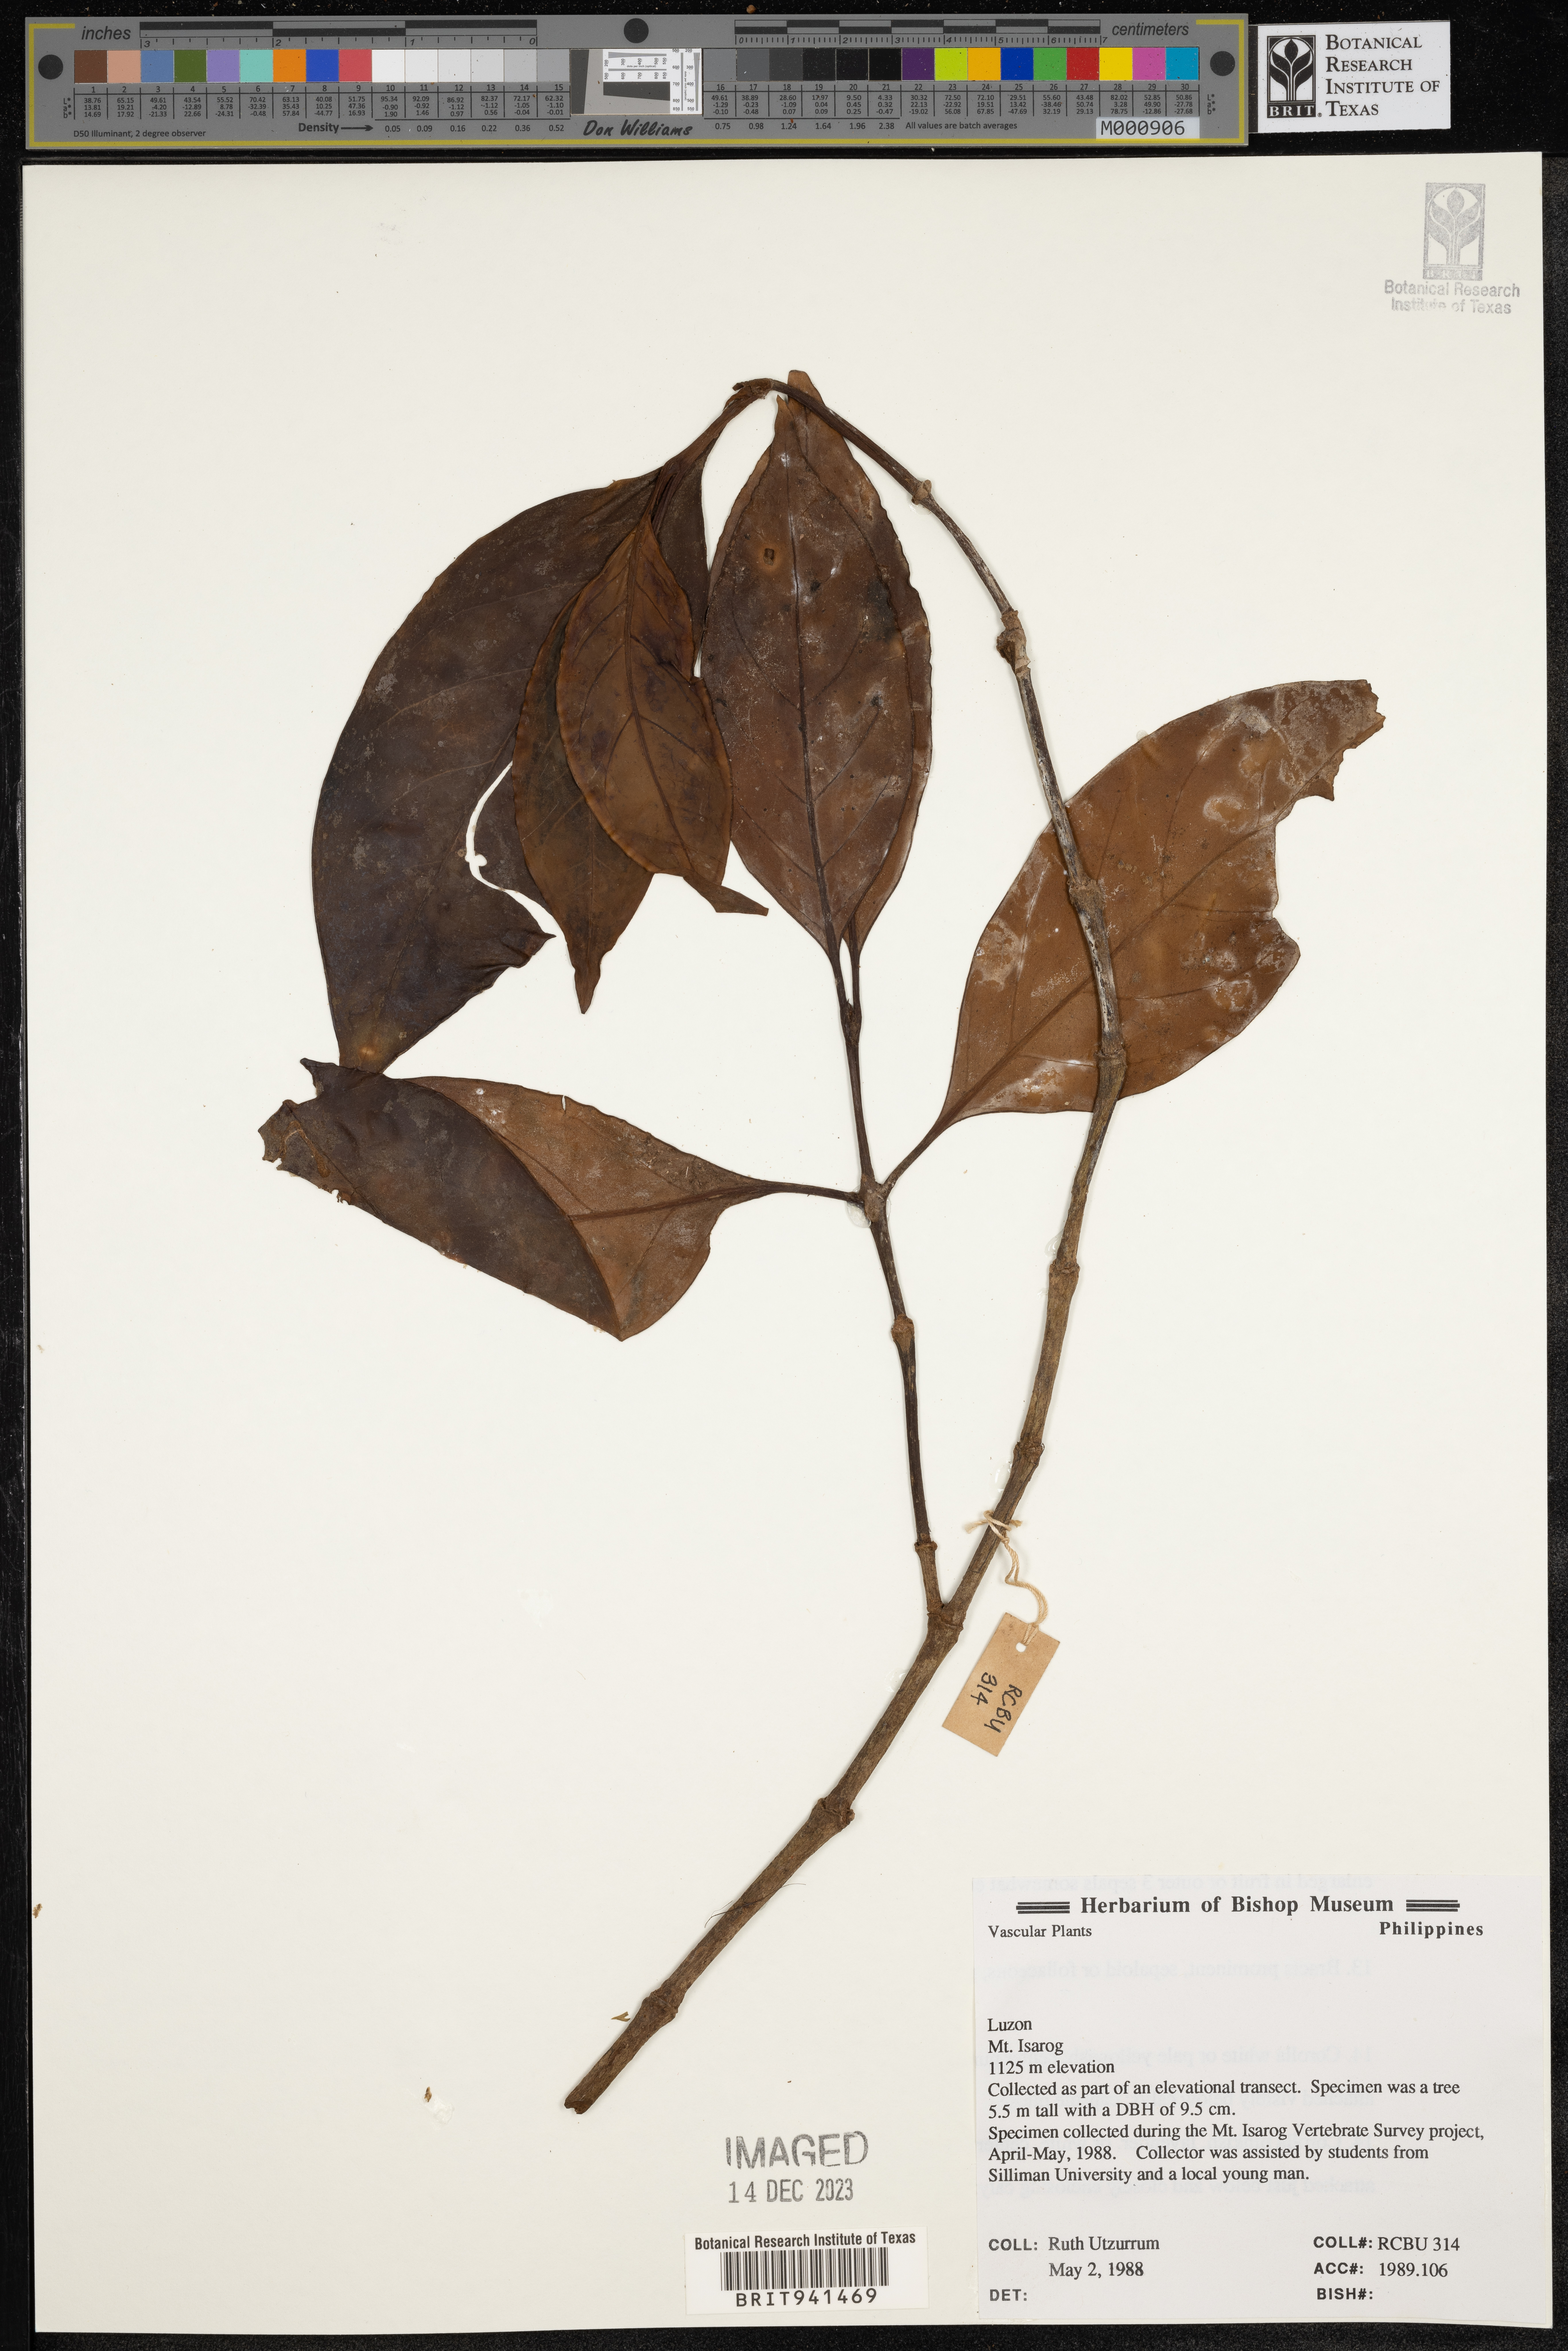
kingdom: Plantae
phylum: Tracheophyta
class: Magnoliopsida
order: Gentianales
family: Rubiaceae
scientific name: Rubiaceae
